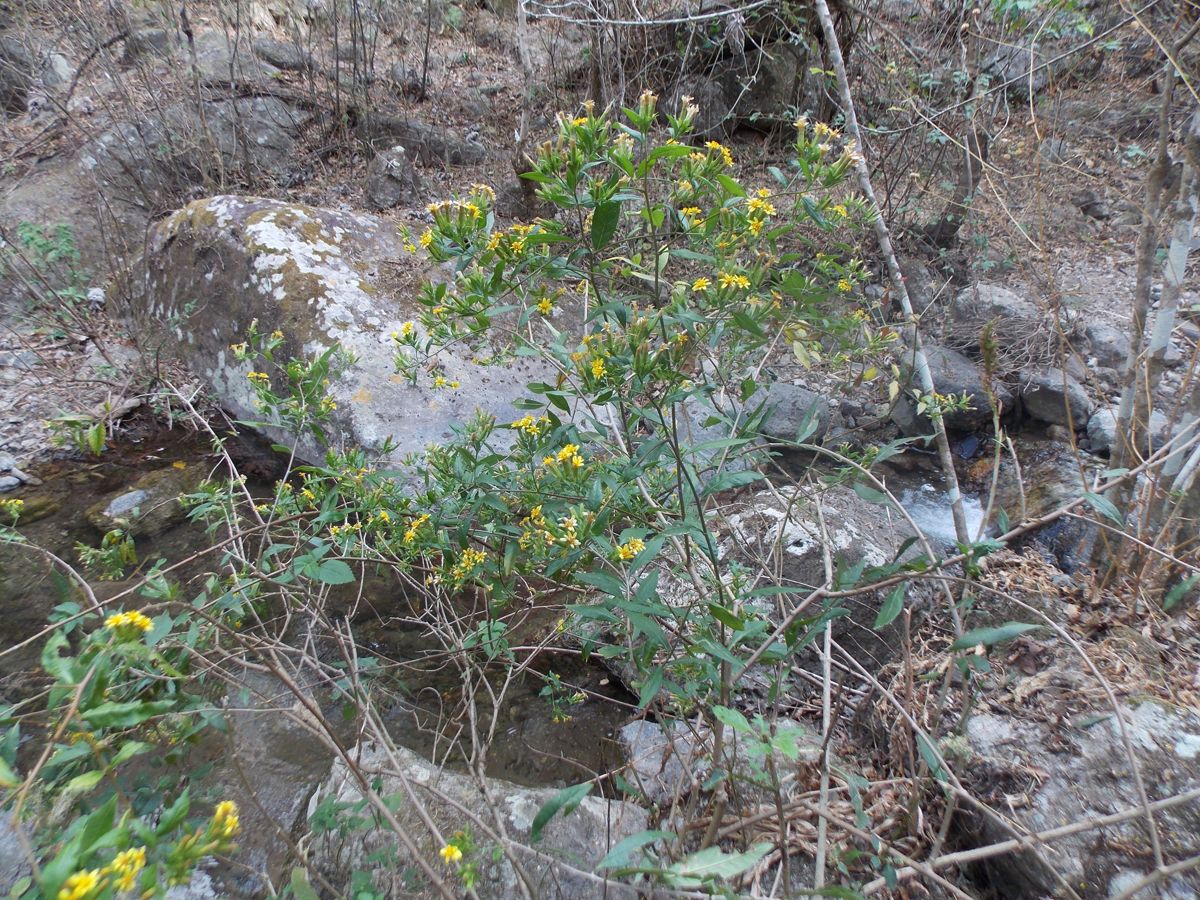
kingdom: Plantae
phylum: Tracheophyta
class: Magnoliopsida
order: Asterales
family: Asteraceae
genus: Trixis
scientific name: Trixis inula
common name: Tropical threefold
